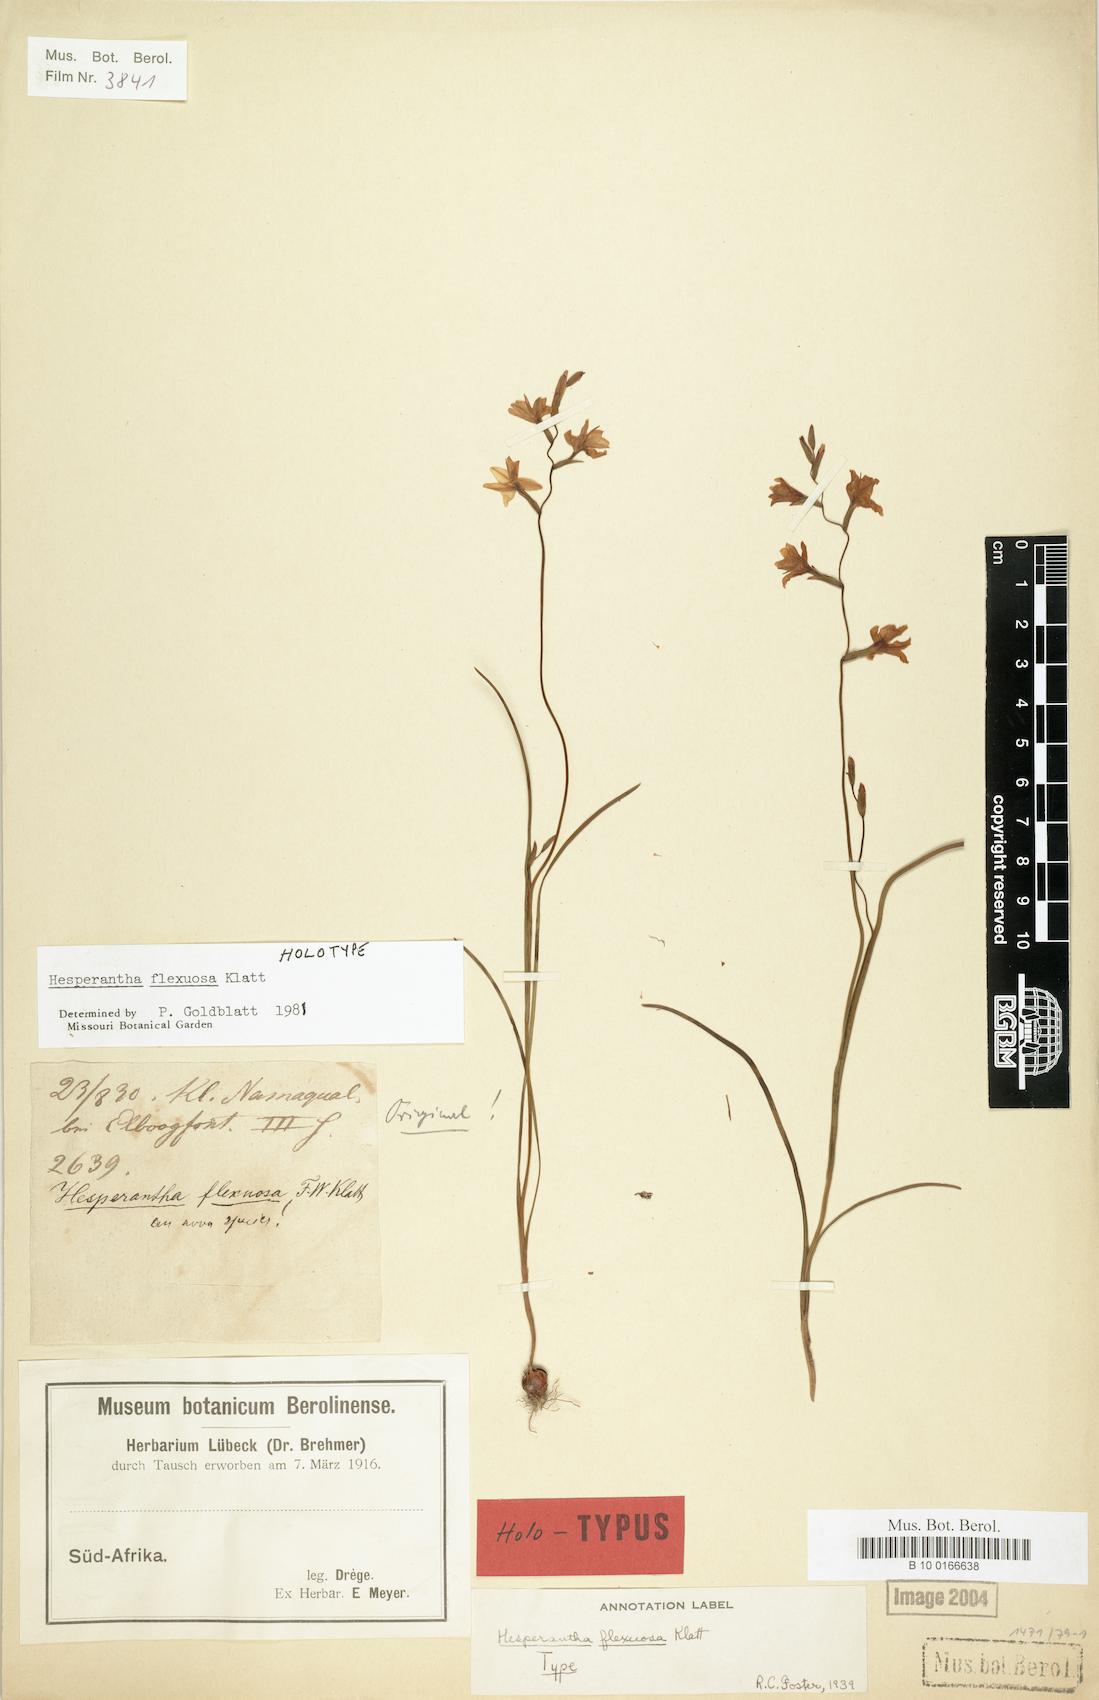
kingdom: Plantae
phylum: Tracheophyta
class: Liliopsida
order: Asparagales
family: Iridaceae
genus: Hesperantha
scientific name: Hesperantha flexuosa
